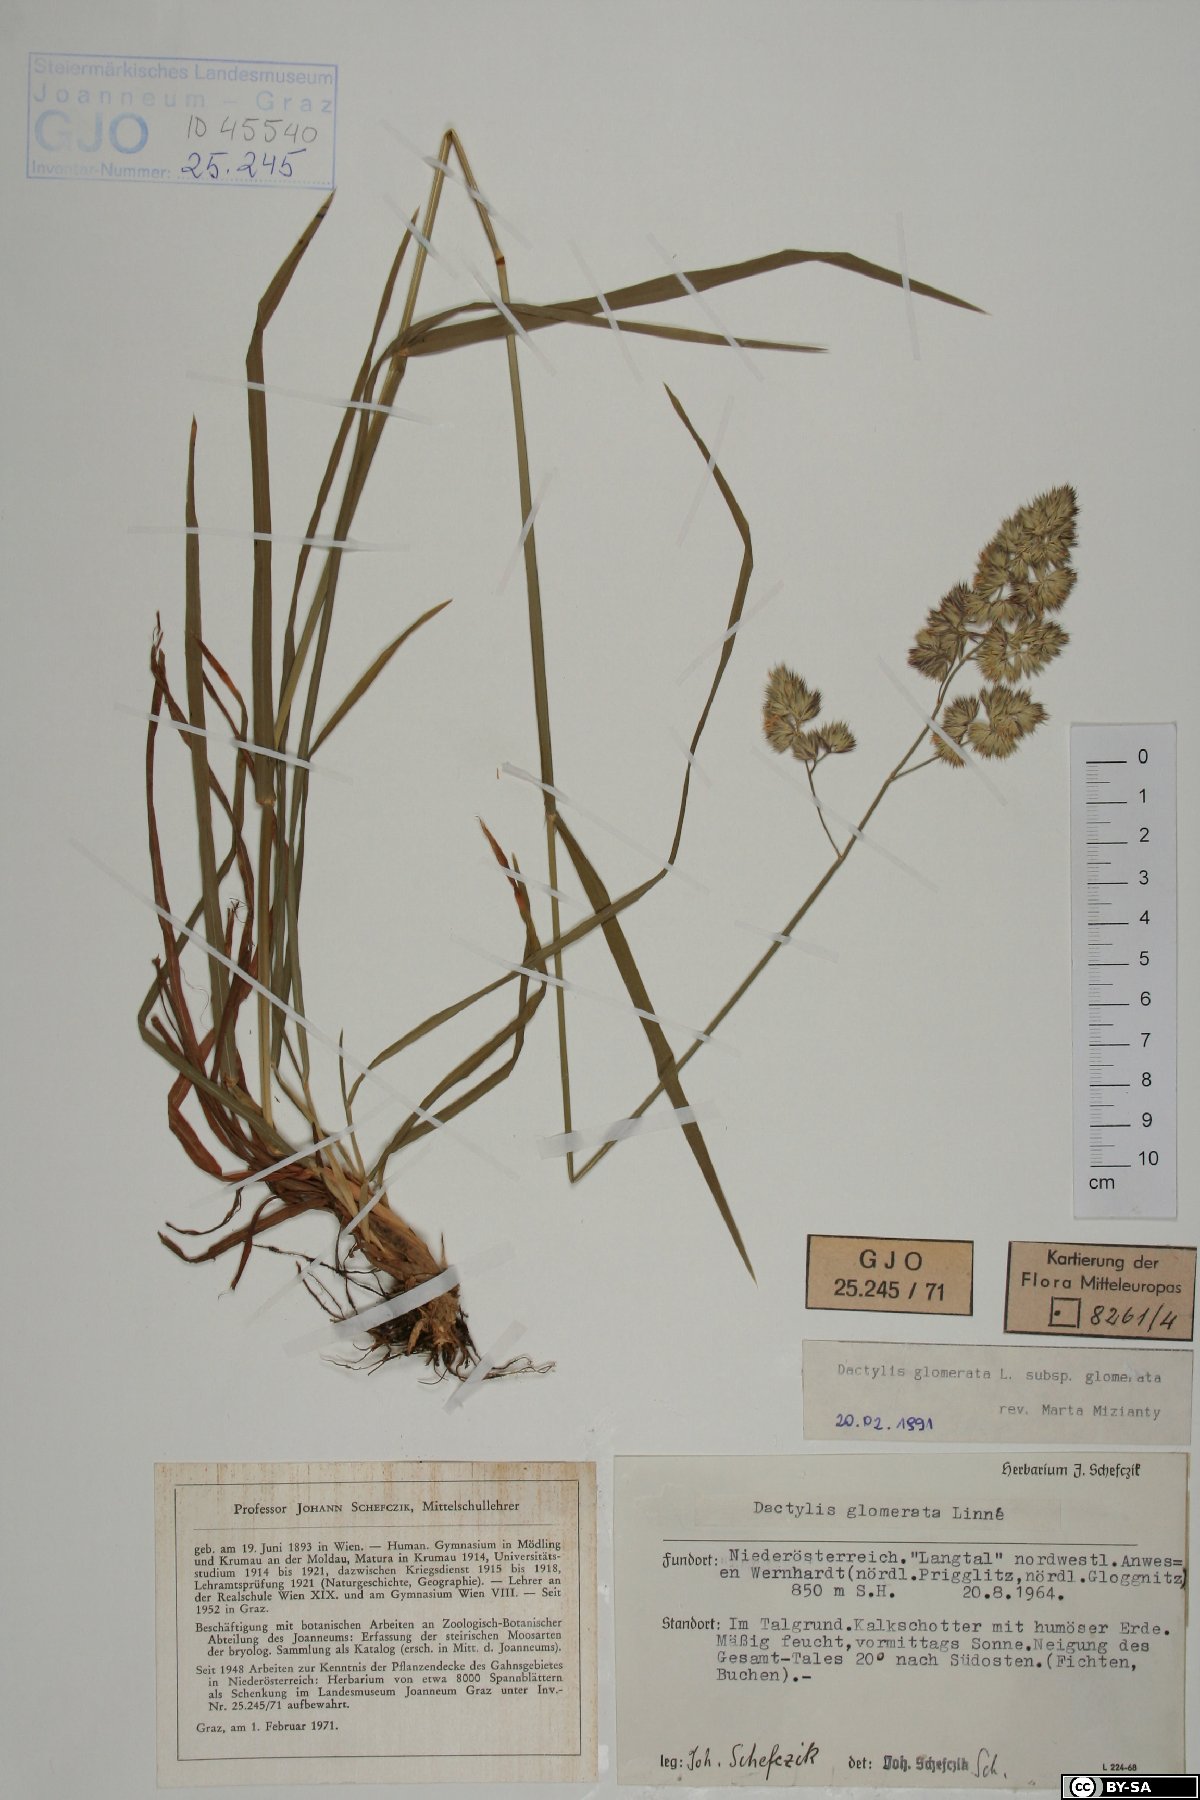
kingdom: Plantae
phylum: Tracheophyta
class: Liliopsida
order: Poales
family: Poaceae
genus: Dactylis
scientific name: Dactylis glomerata
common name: Orchardgrass
